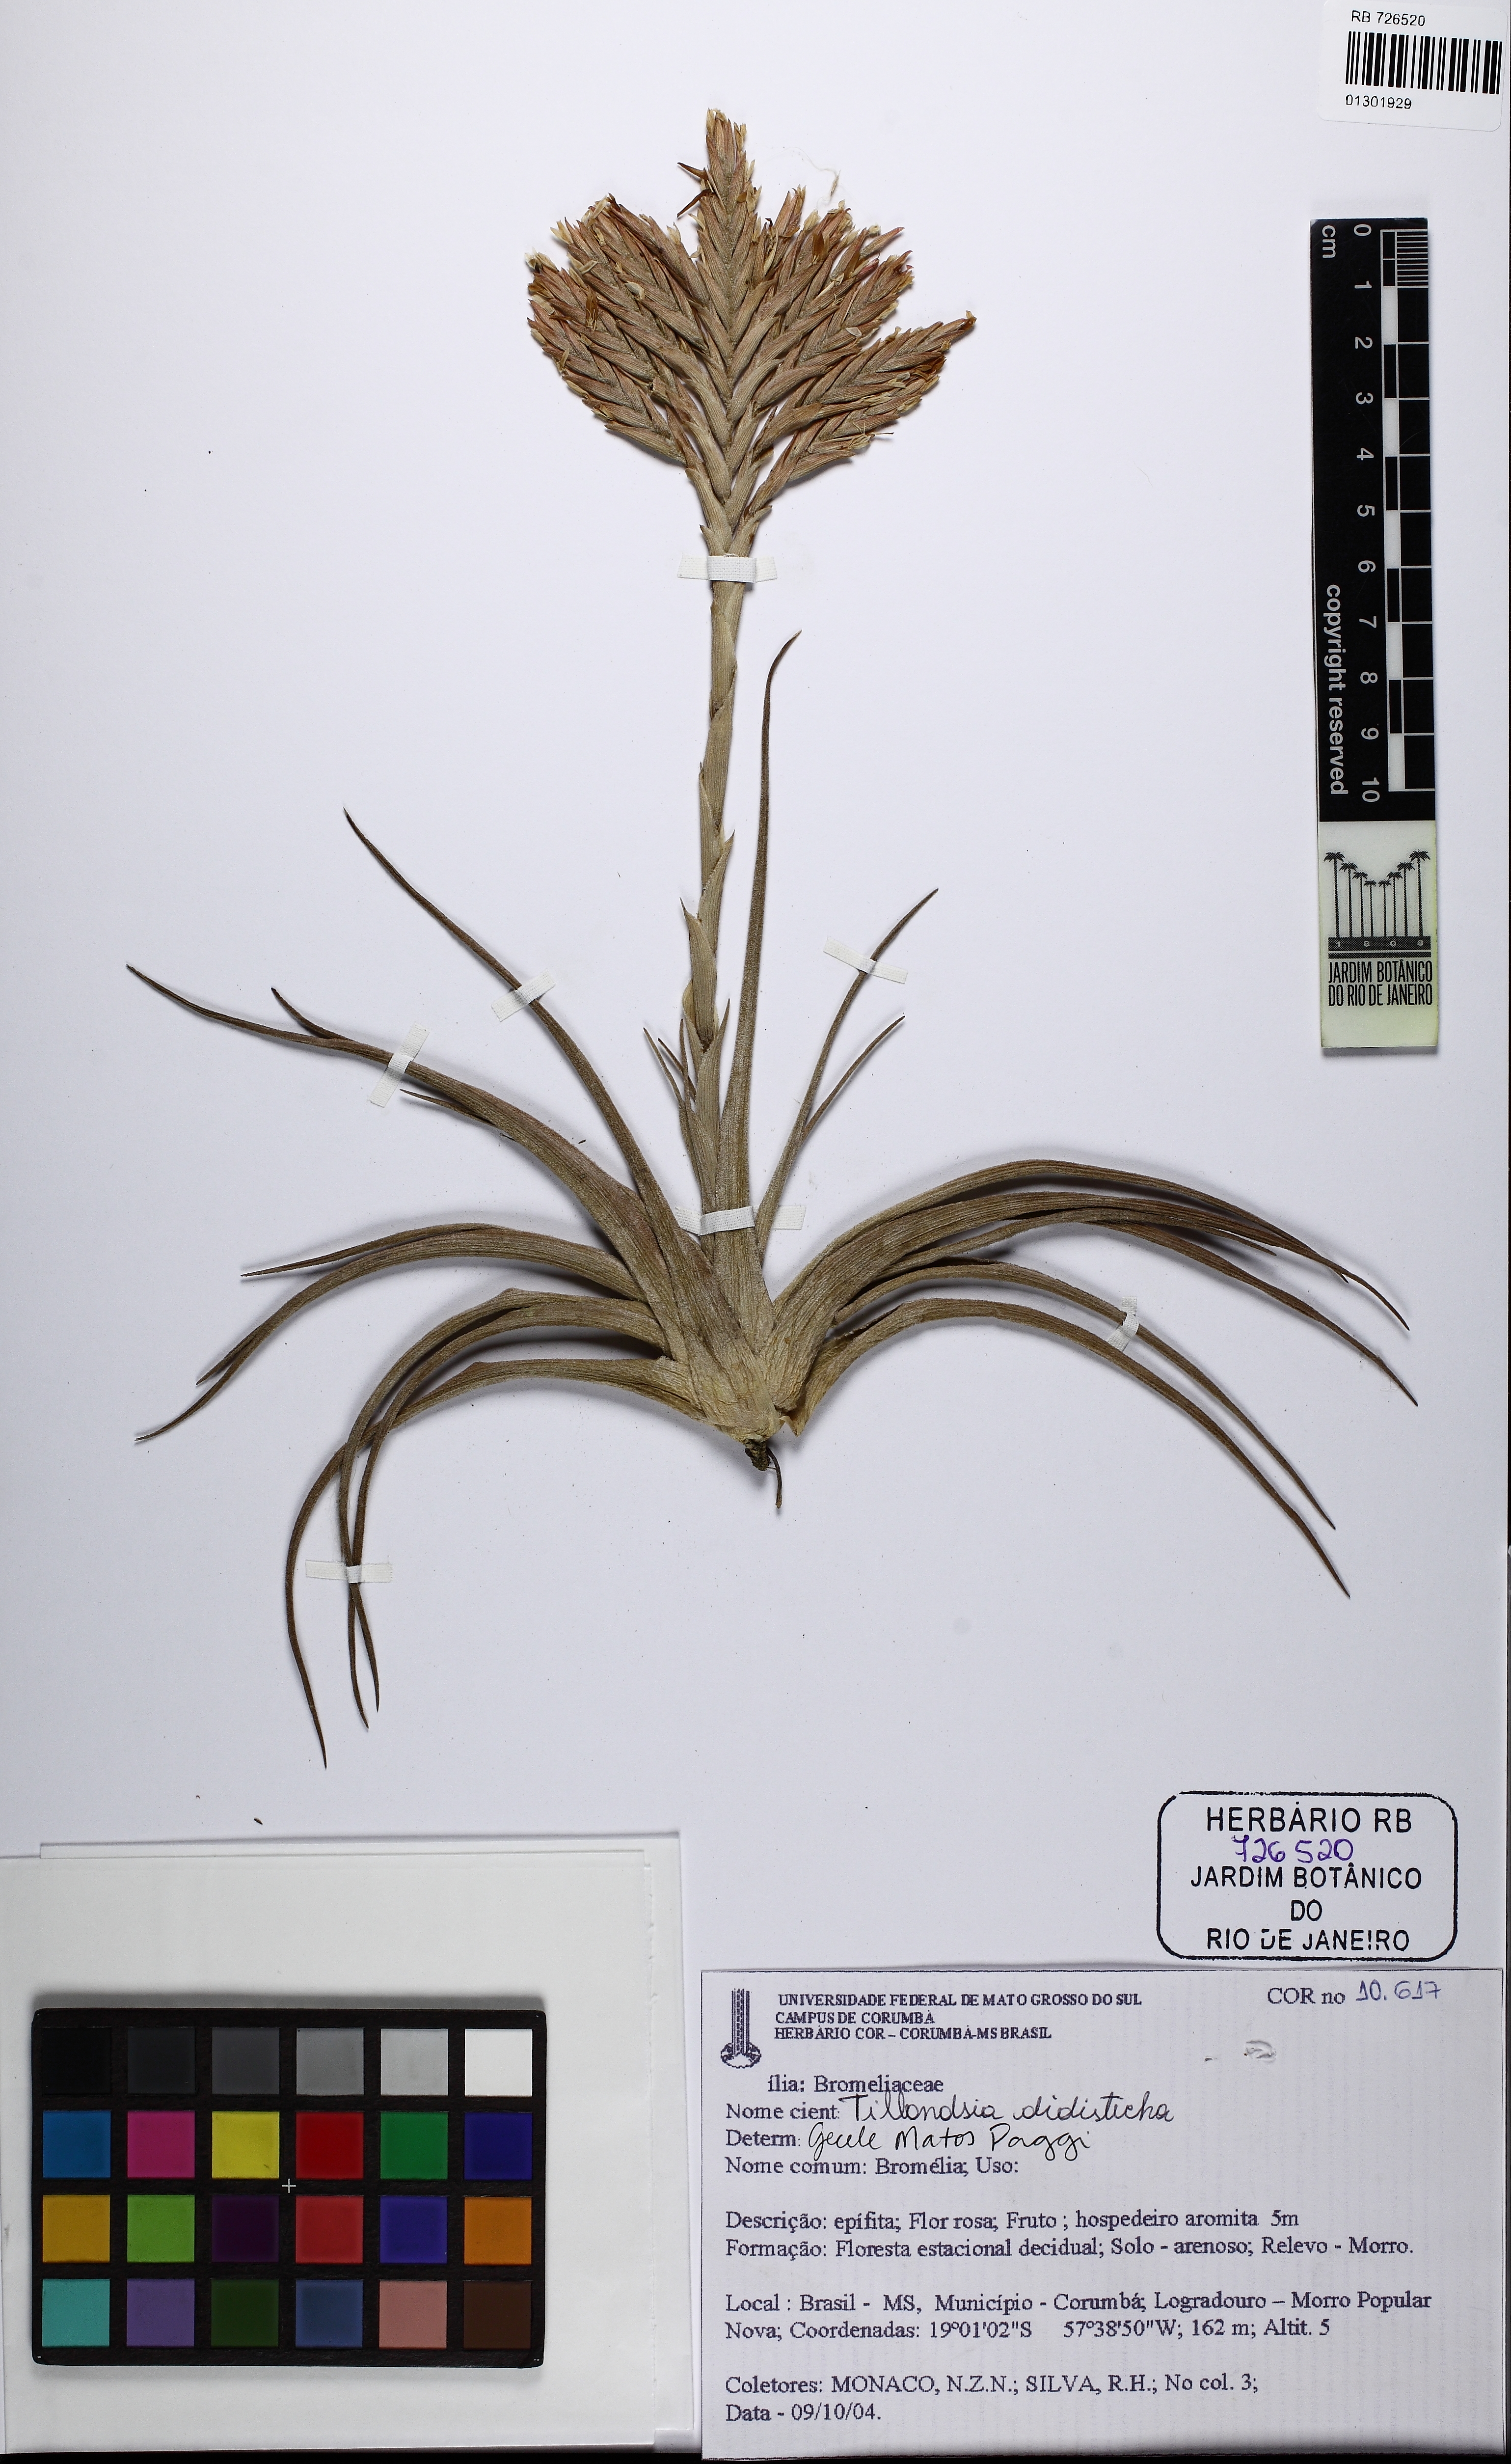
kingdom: Plantae
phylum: Tracheophyta
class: Liliopsida
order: Poales
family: Bromeliaceae
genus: Tillandsia
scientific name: Tillandsia didisticha
